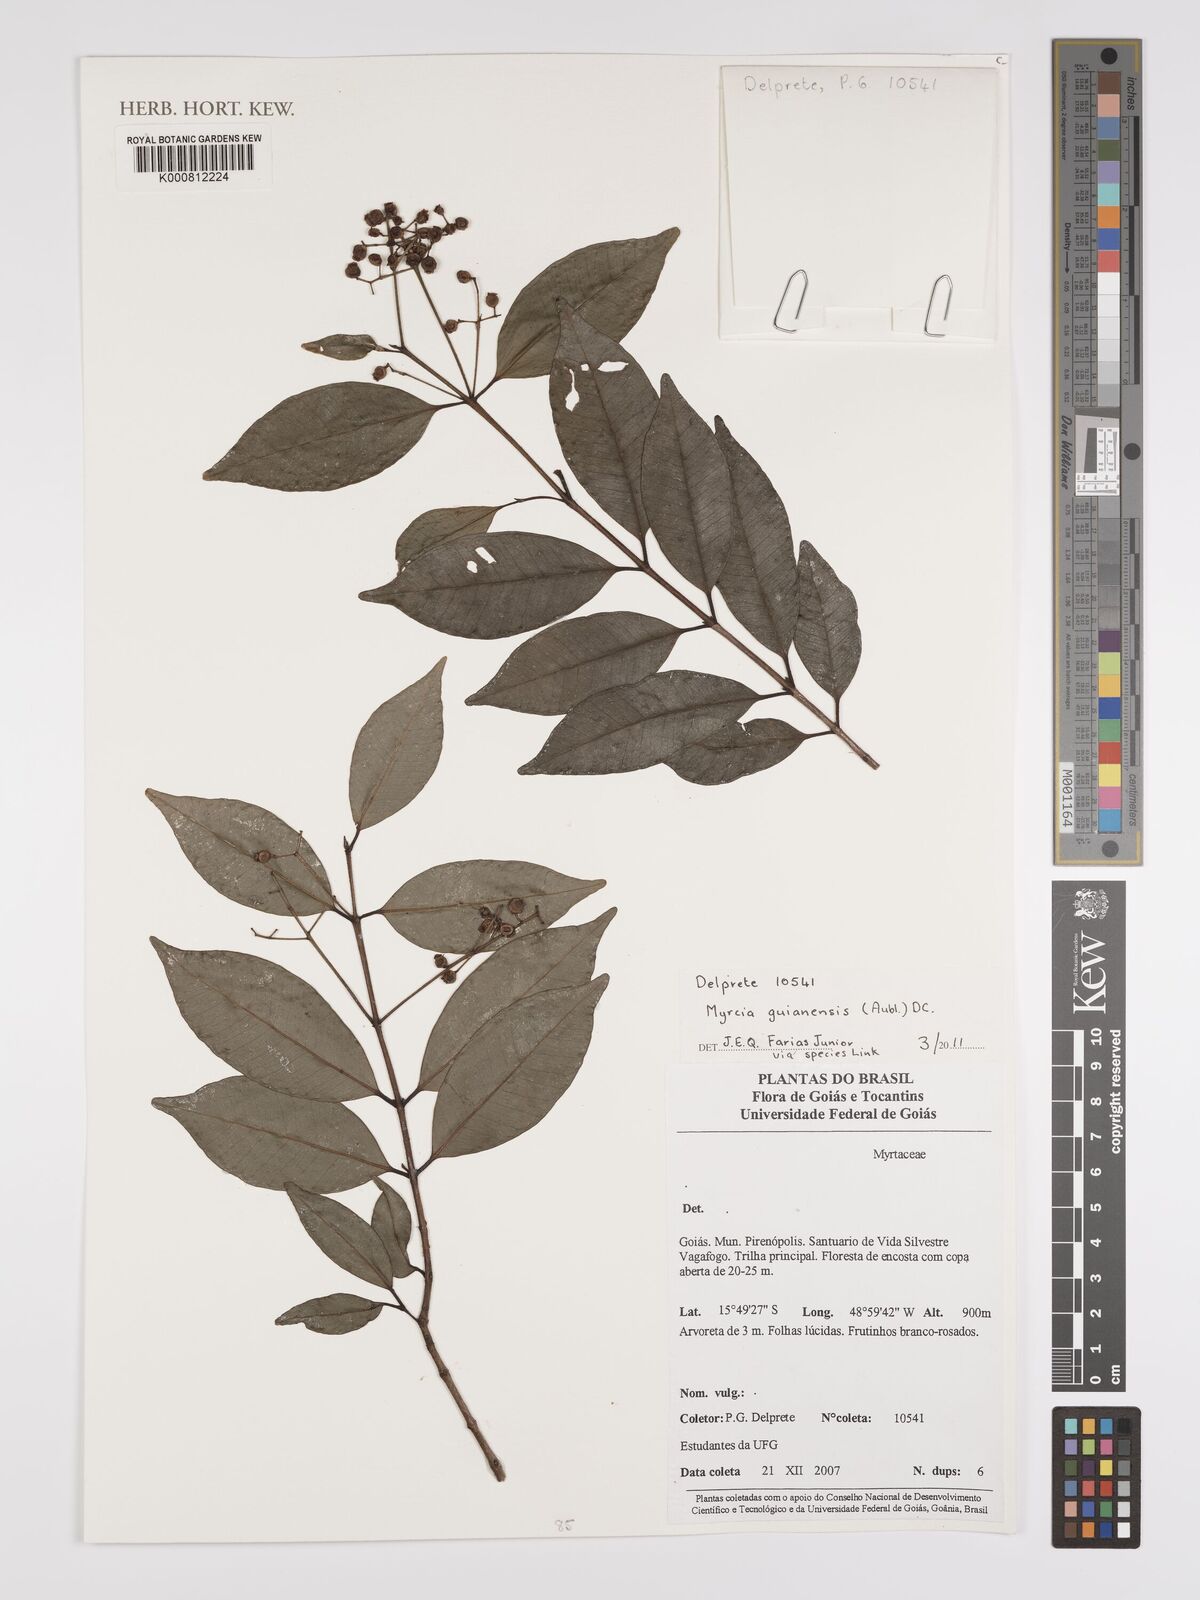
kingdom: Plantae
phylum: Tracheophyta
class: Magnoliopsida
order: Myrtales
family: Myrtaceae
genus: Myrcia
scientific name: Myrcia guianensis
